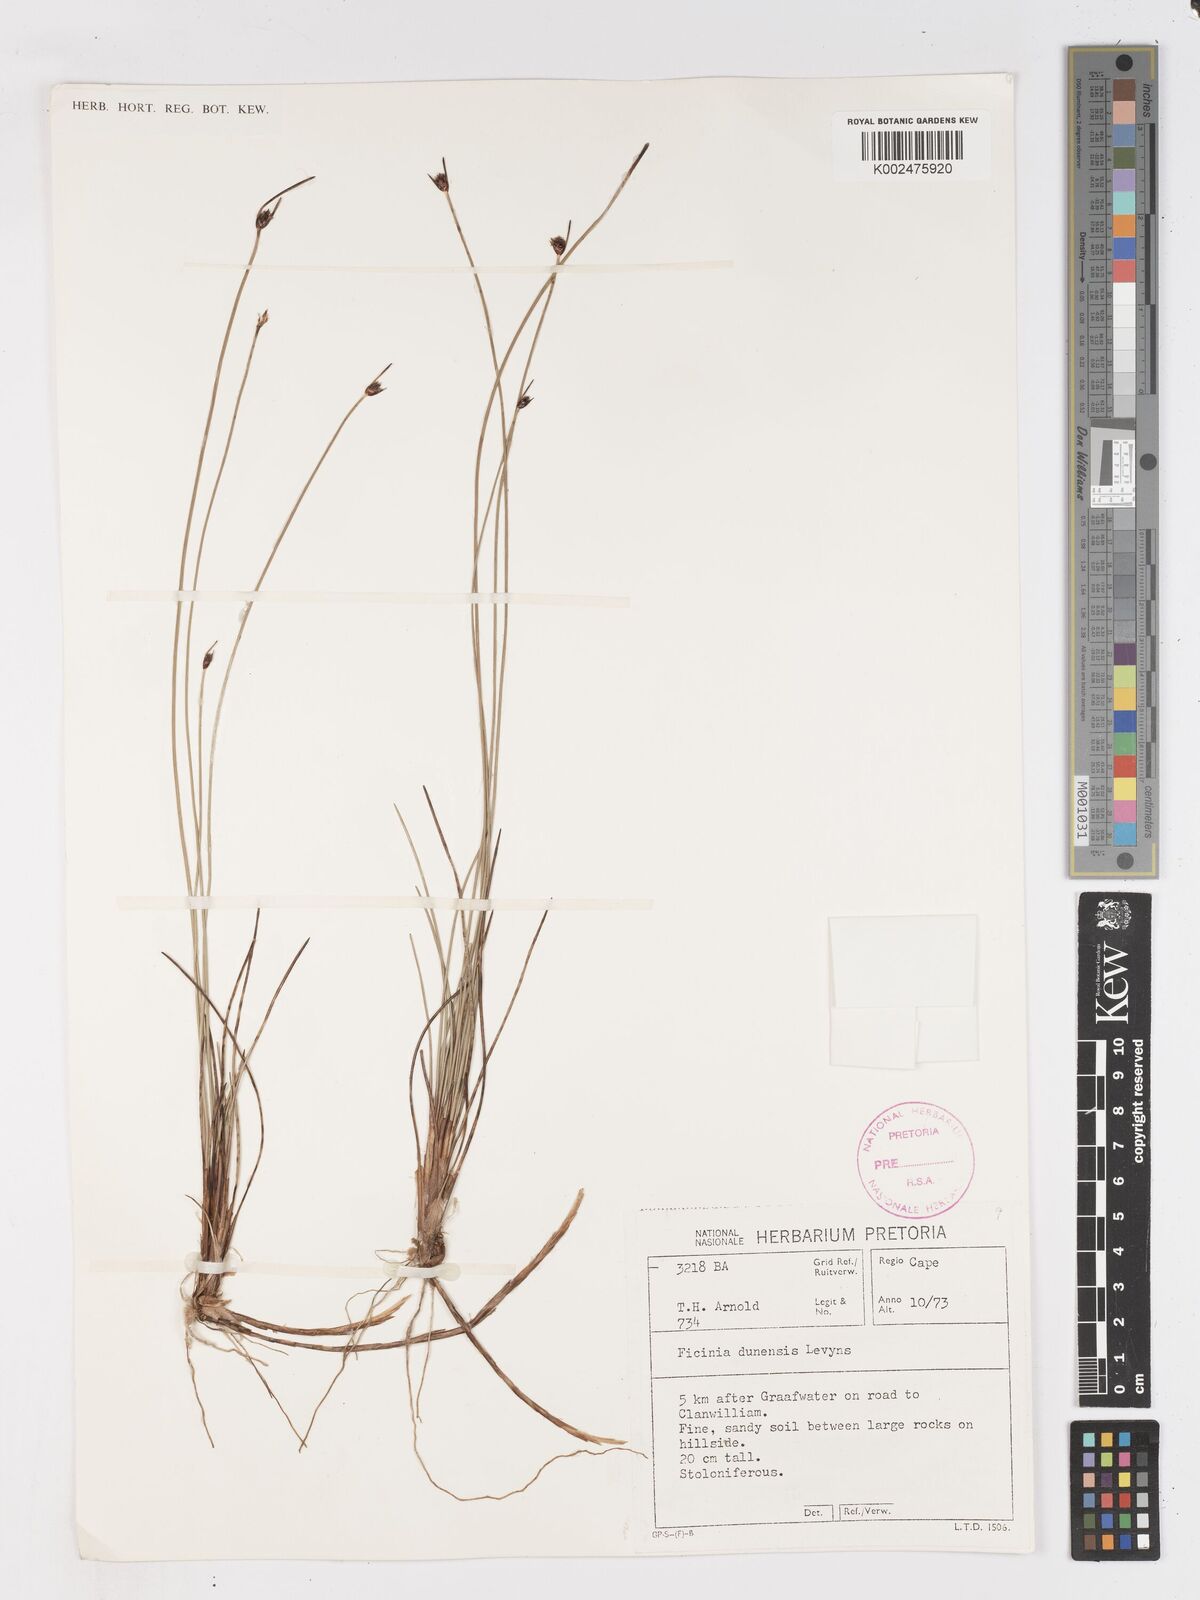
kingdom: Plantae
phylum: Tracheophyta
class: Liliopsida
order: Poales
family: Cyperaceae
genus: Ficinia
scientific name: Ficinia dunensis
